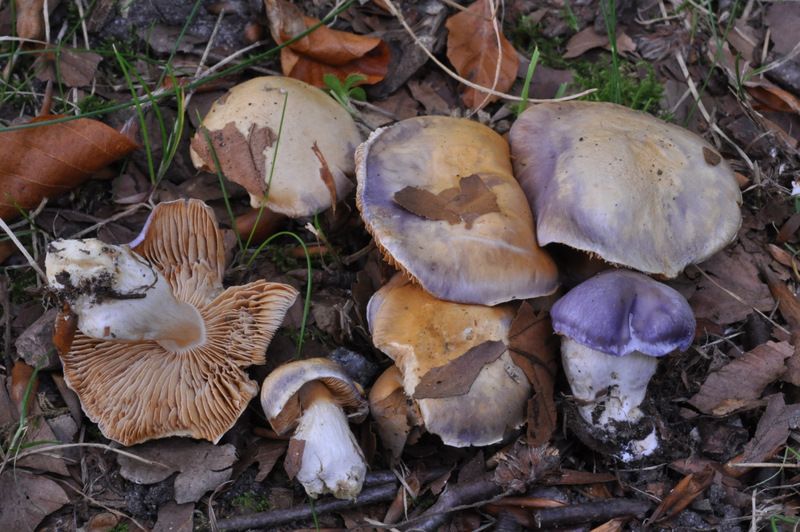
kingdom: Fungi
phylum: Basidiomycota
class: Agaricomycetes
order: Agaricales
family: Cortinariaceae
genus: Thaxterogaster
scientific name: Thaxterogaster croceocoeruleus
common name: blågullig slørhat
